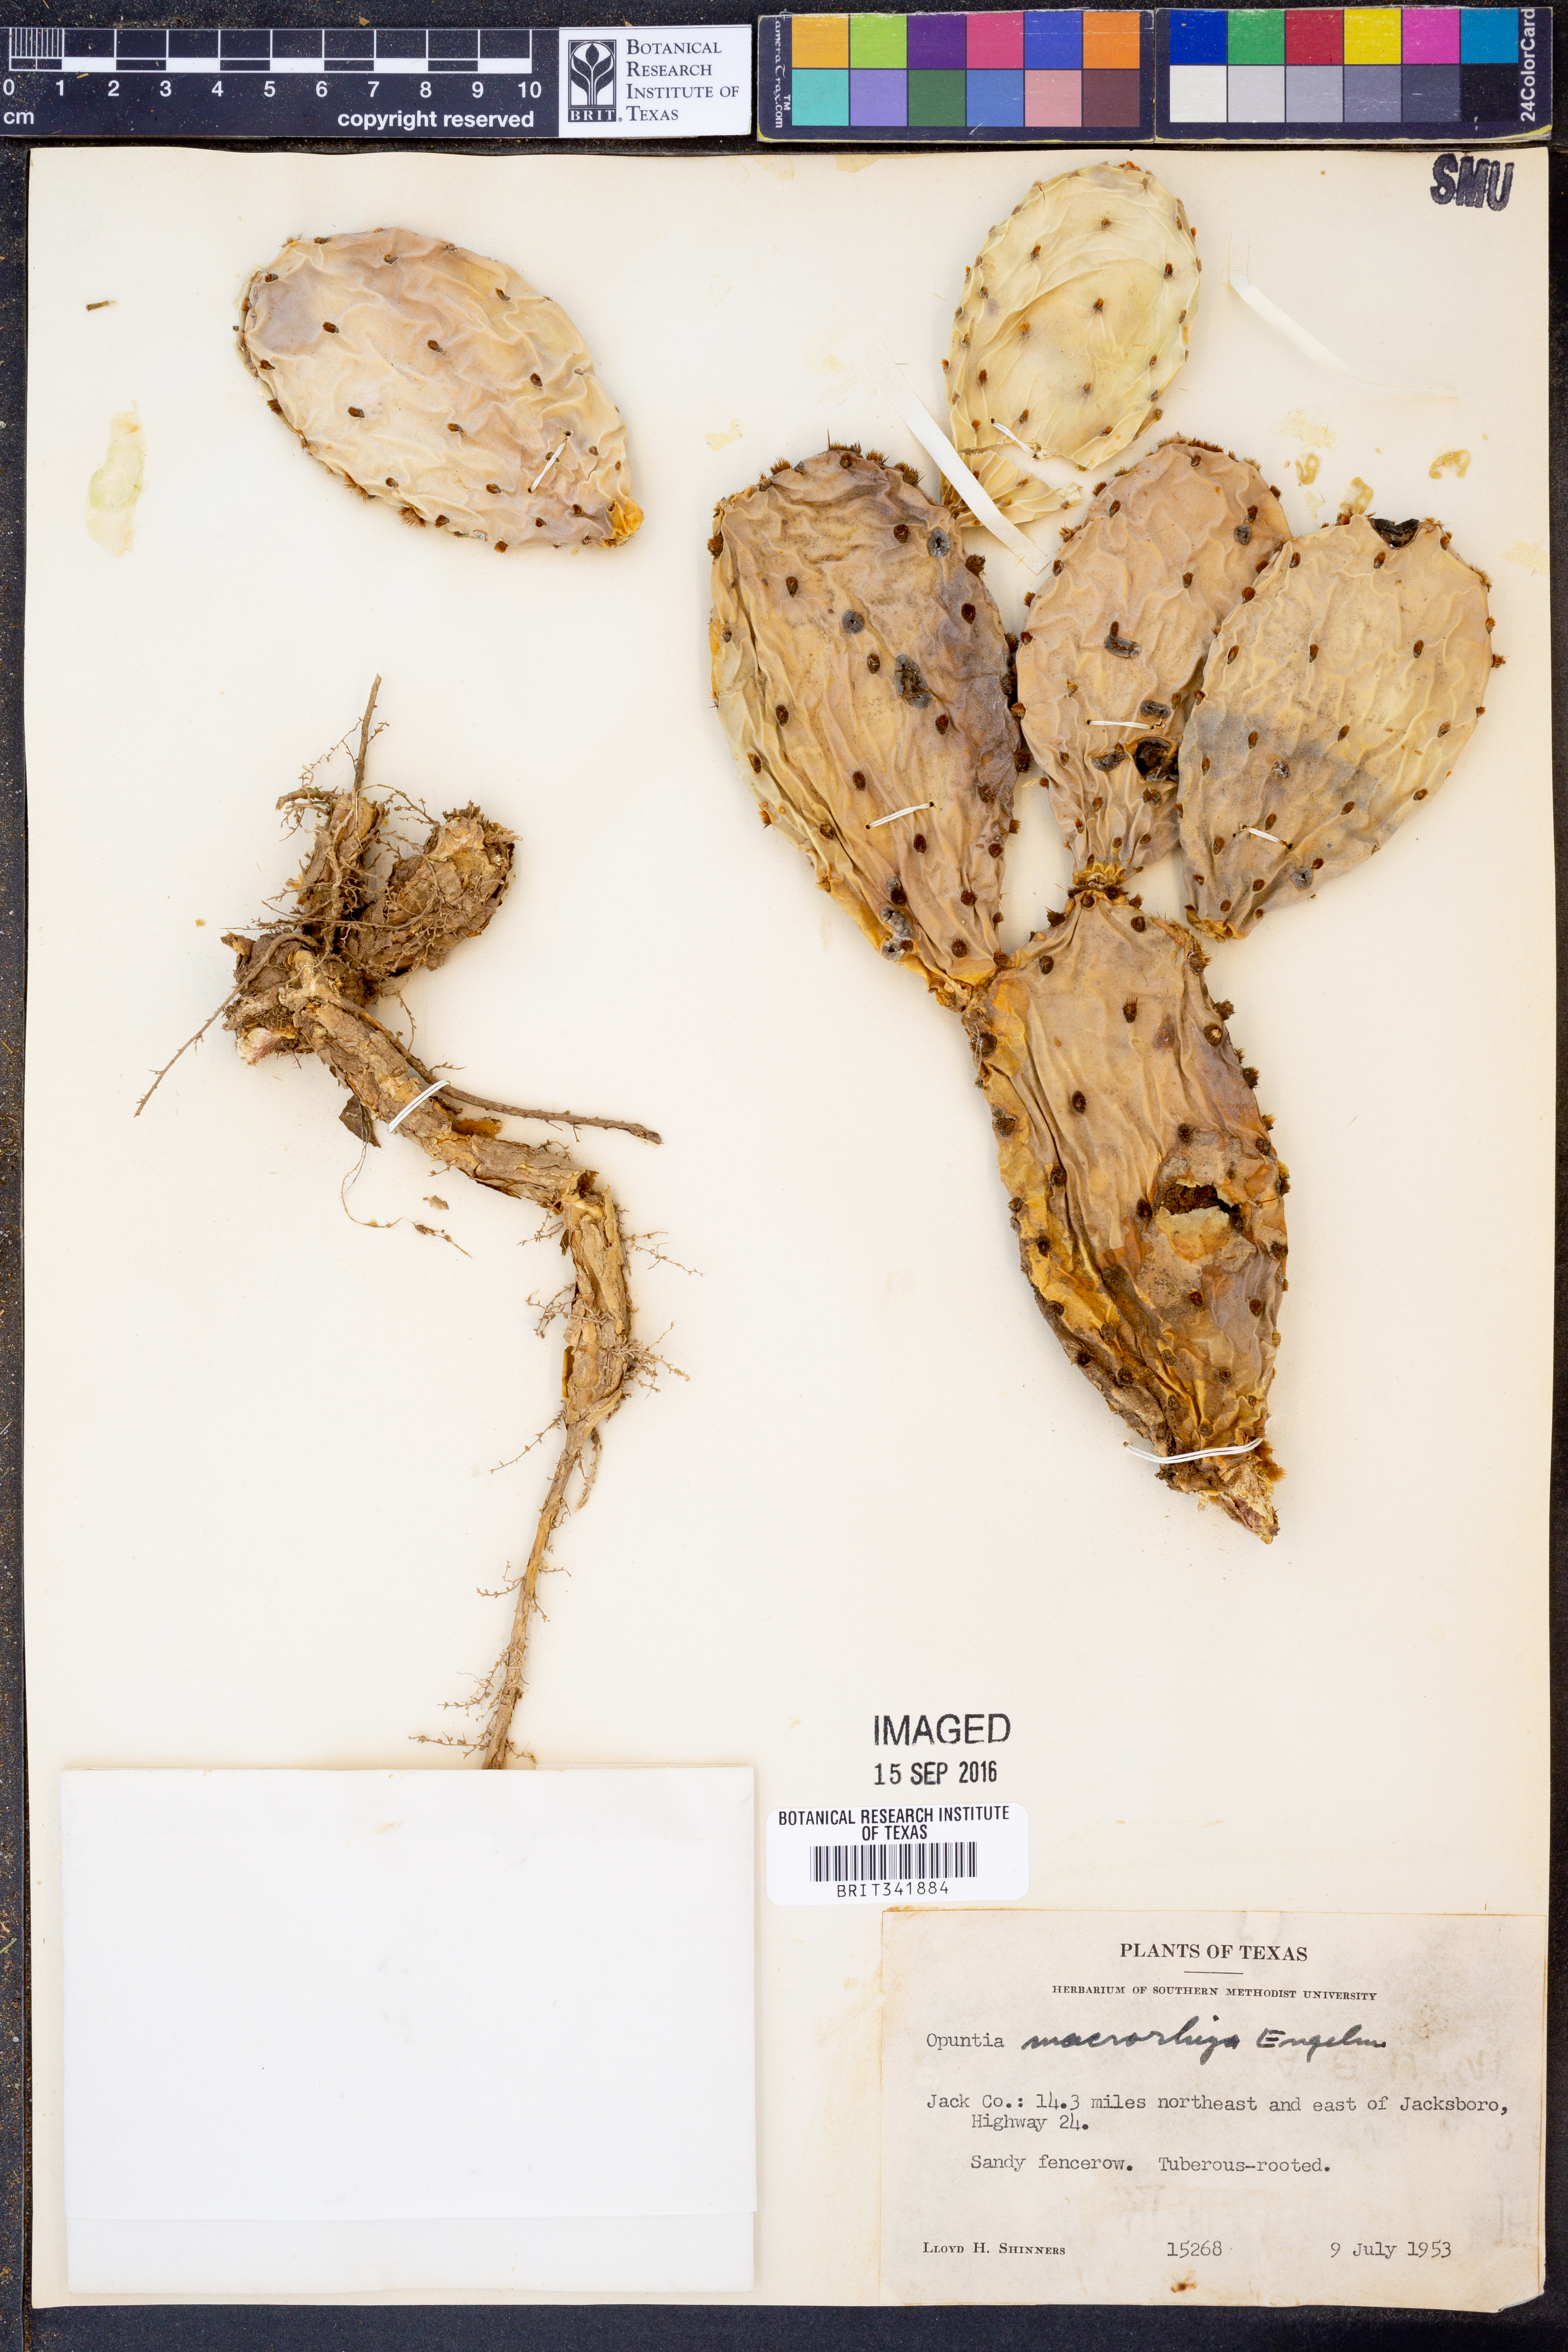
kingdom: Plantae
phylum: Tracheophyta
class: Magnoliopsida
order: Caryophyllales
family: Cactaceae
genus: Opuntia
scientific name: Opuntia macrorhiza
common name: Grassland pricklypear
